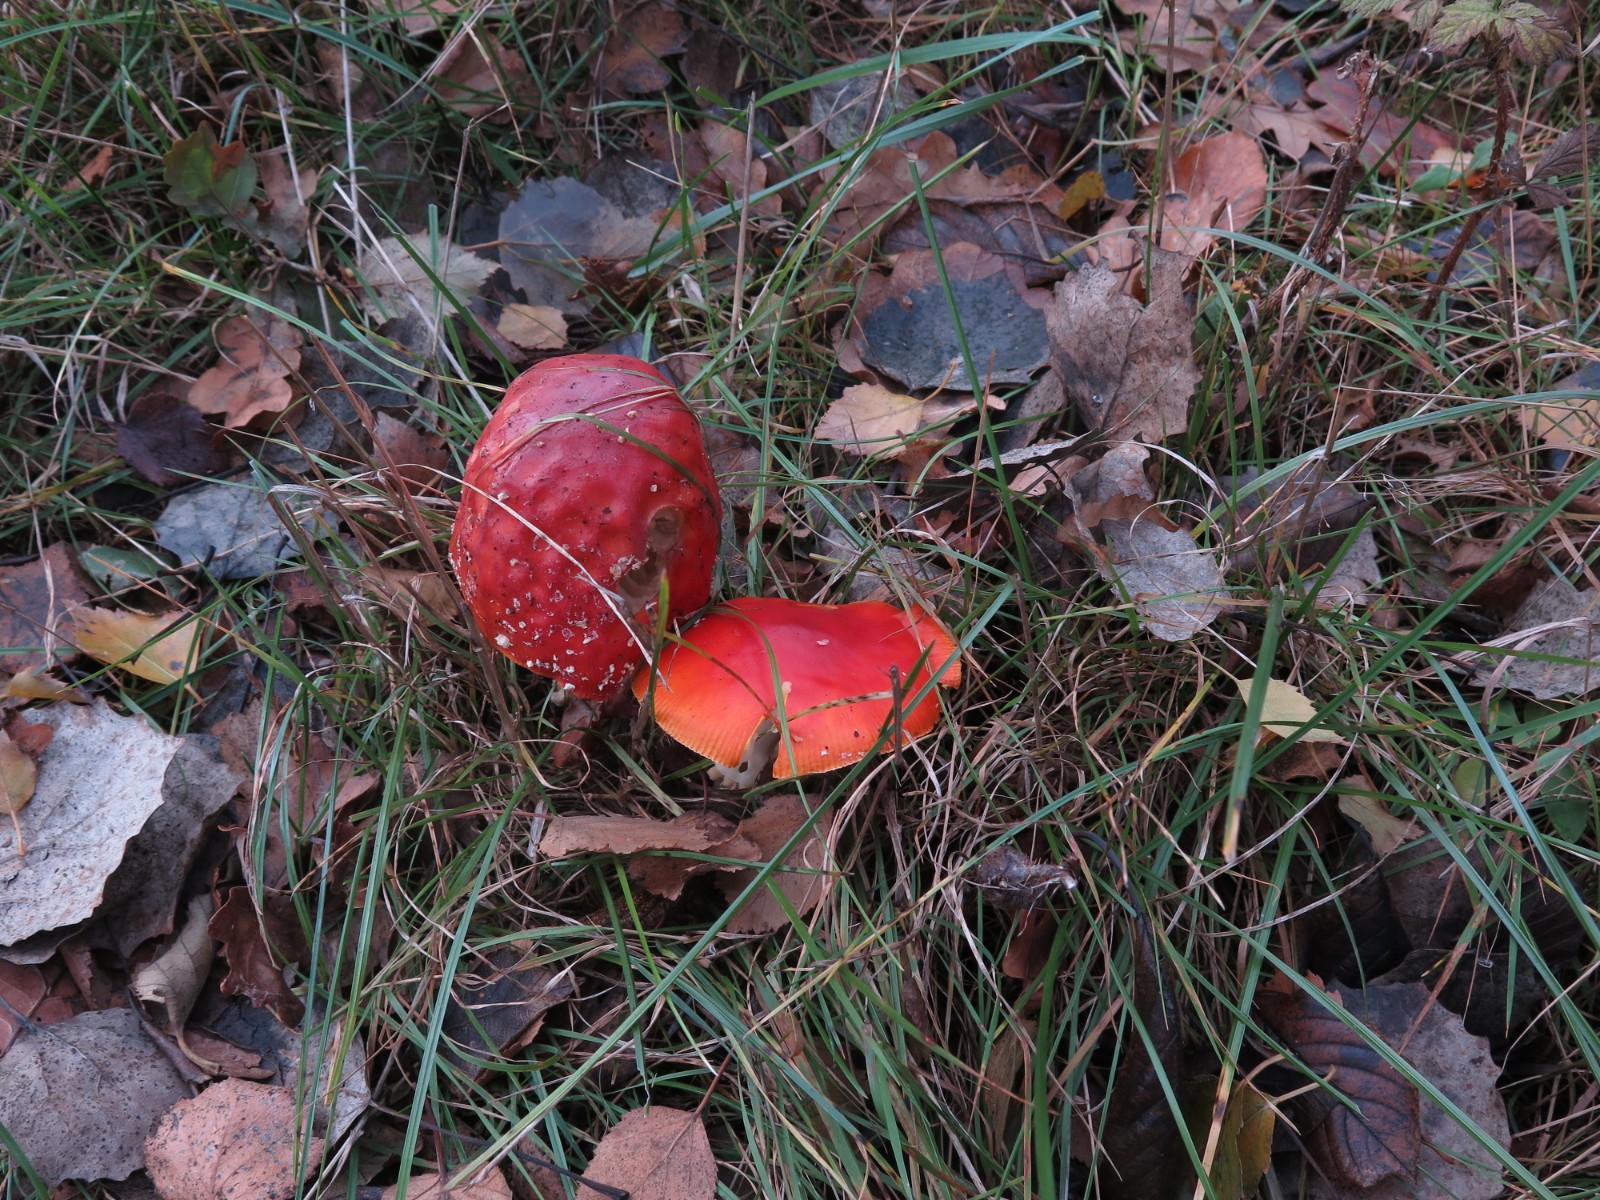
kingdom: Fungi
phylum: Basidiomycota
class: Agaricomycetes
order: Agaricales
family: Amanitaceae
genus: Amanita
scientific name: Amanita muscaria
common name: rød fluesvamp
